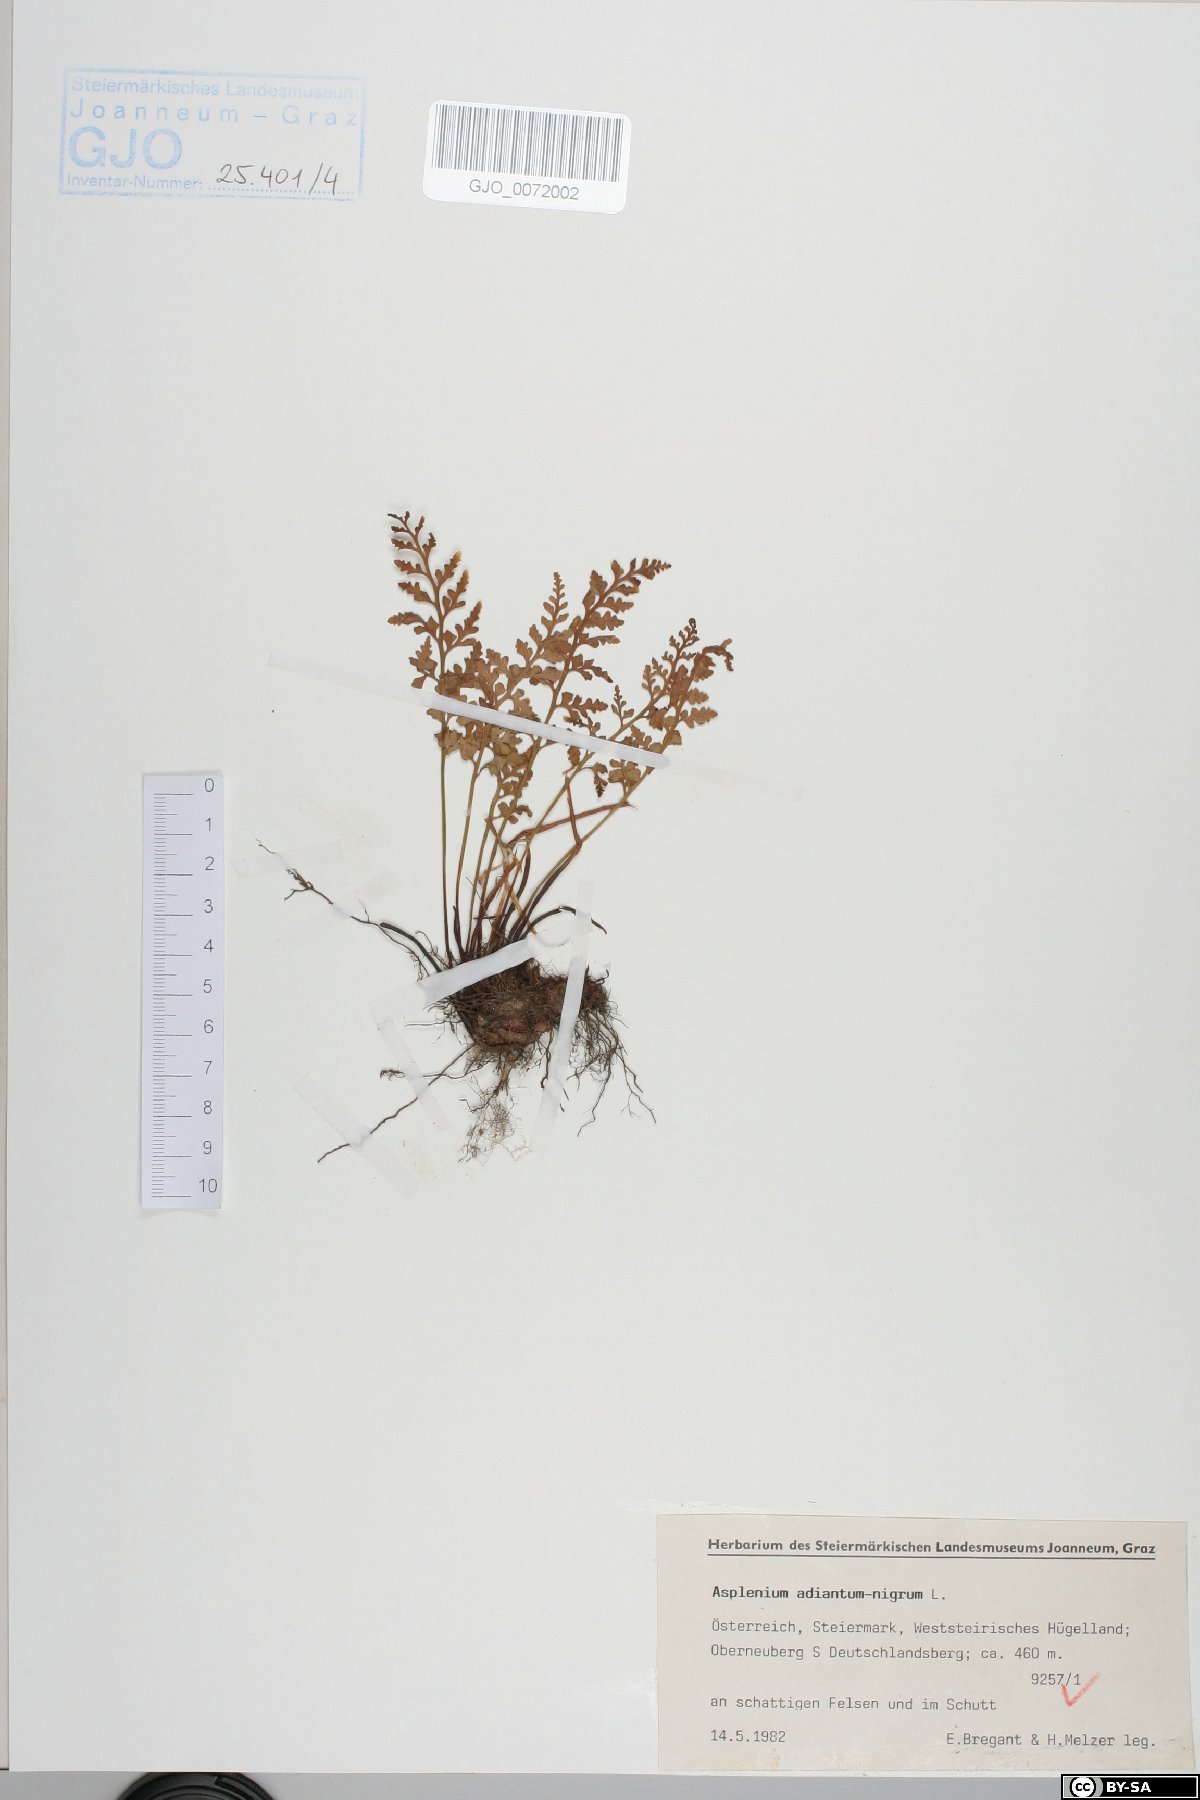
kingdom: Plantae
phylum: Tracheophyta
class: Polypodiopsida
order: Polypodiales
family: Aspleniaceae
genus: Asplenium
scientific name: Asplenium adiantum-nigrum
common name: Black spleenwort
